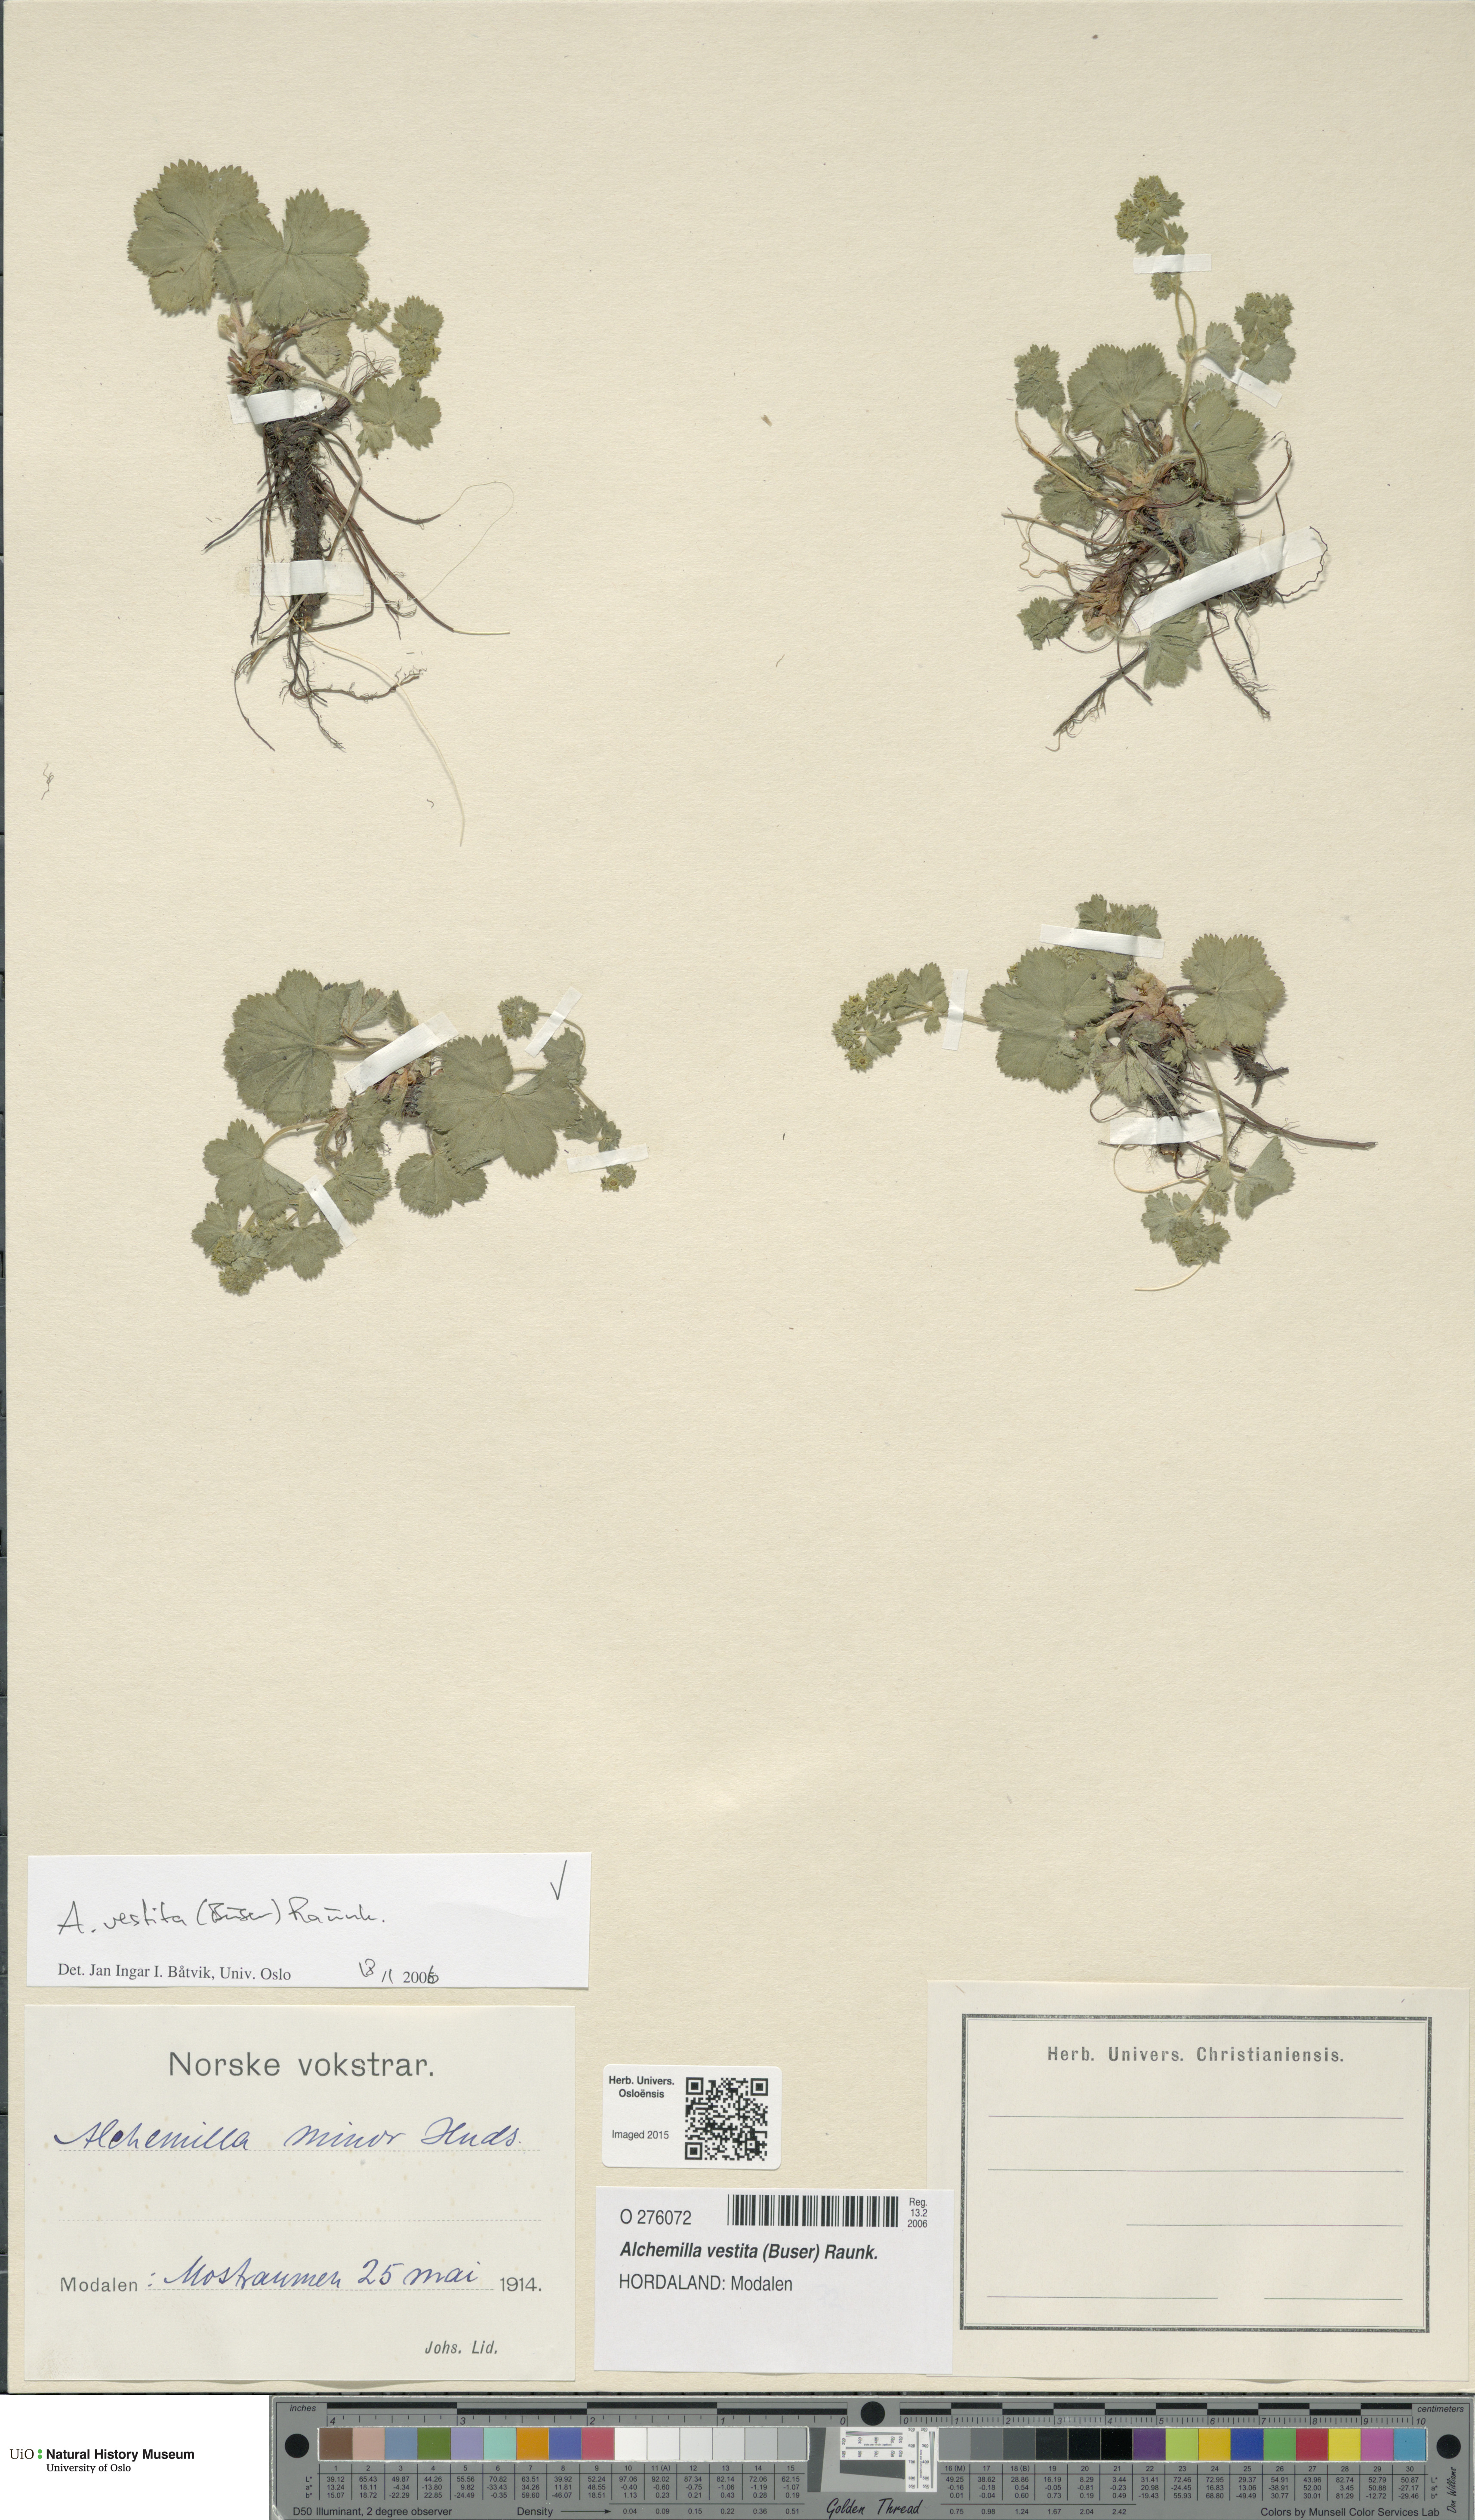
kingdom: Plantae
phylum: Tracheophyta
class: Magnoliopsida
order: Rosales
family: Rosaceae
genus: Alchemilla
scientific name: Alchemilla filicaulis
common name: Hairy lady's-mantle
